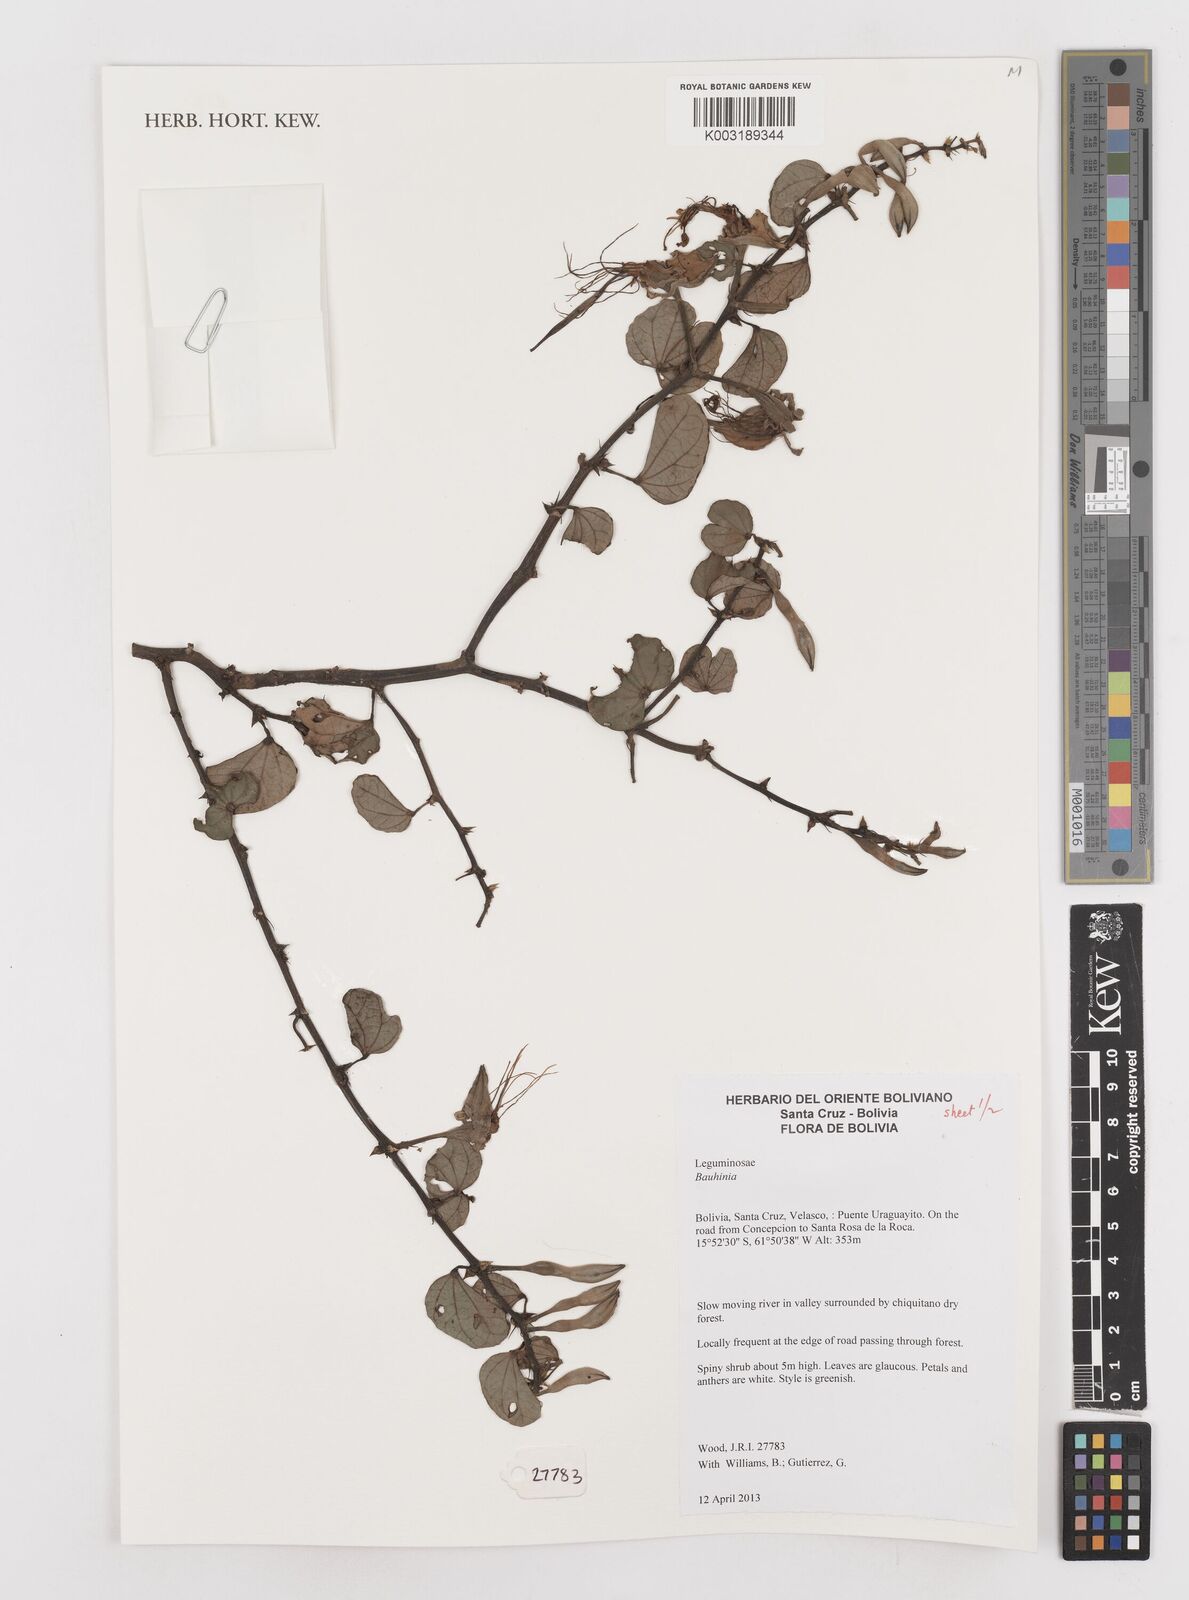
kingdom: Plantae
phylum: Tracheophyta
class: Magnoliopsida
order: Fabales
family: Fabaceae
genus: Bauhinia
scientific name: Bauhinia
